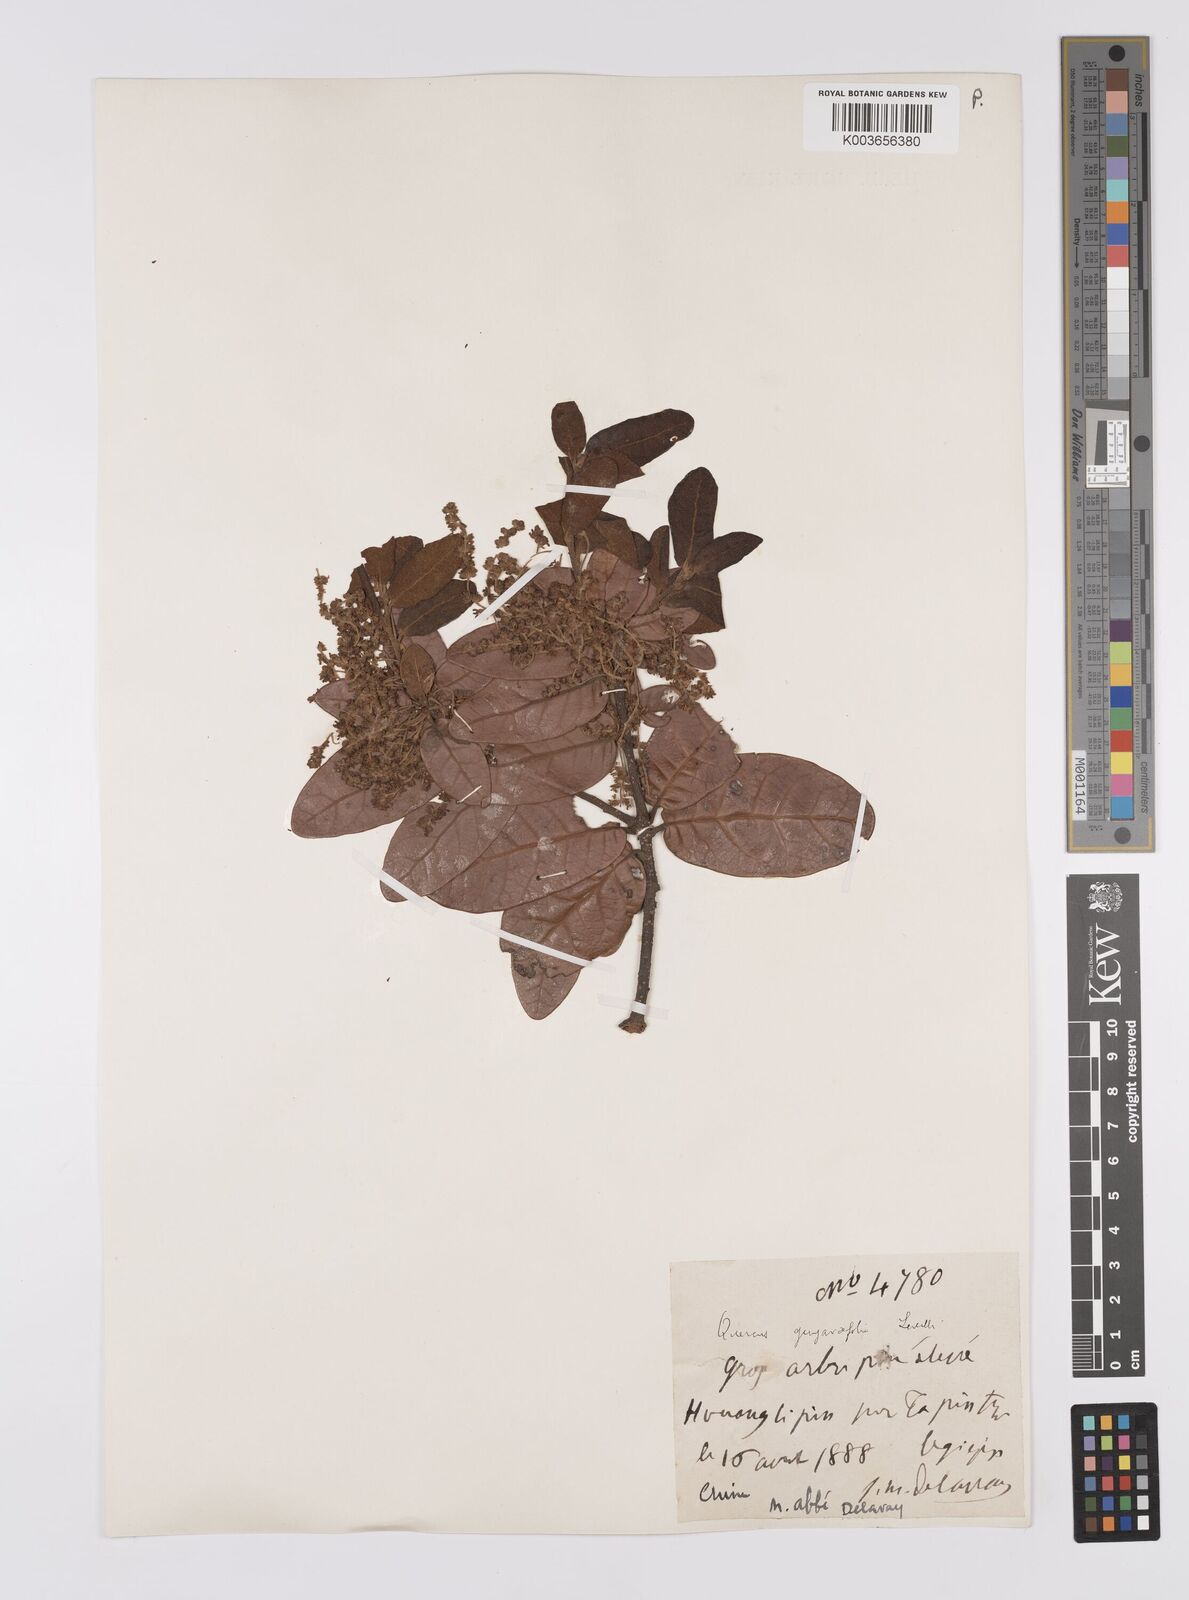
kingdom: Plantae
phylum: Tracheophyta
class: Magnoliopsida
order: Fagales
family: Fagaceae
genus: Quercus
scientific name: Quercus guyavifolia
